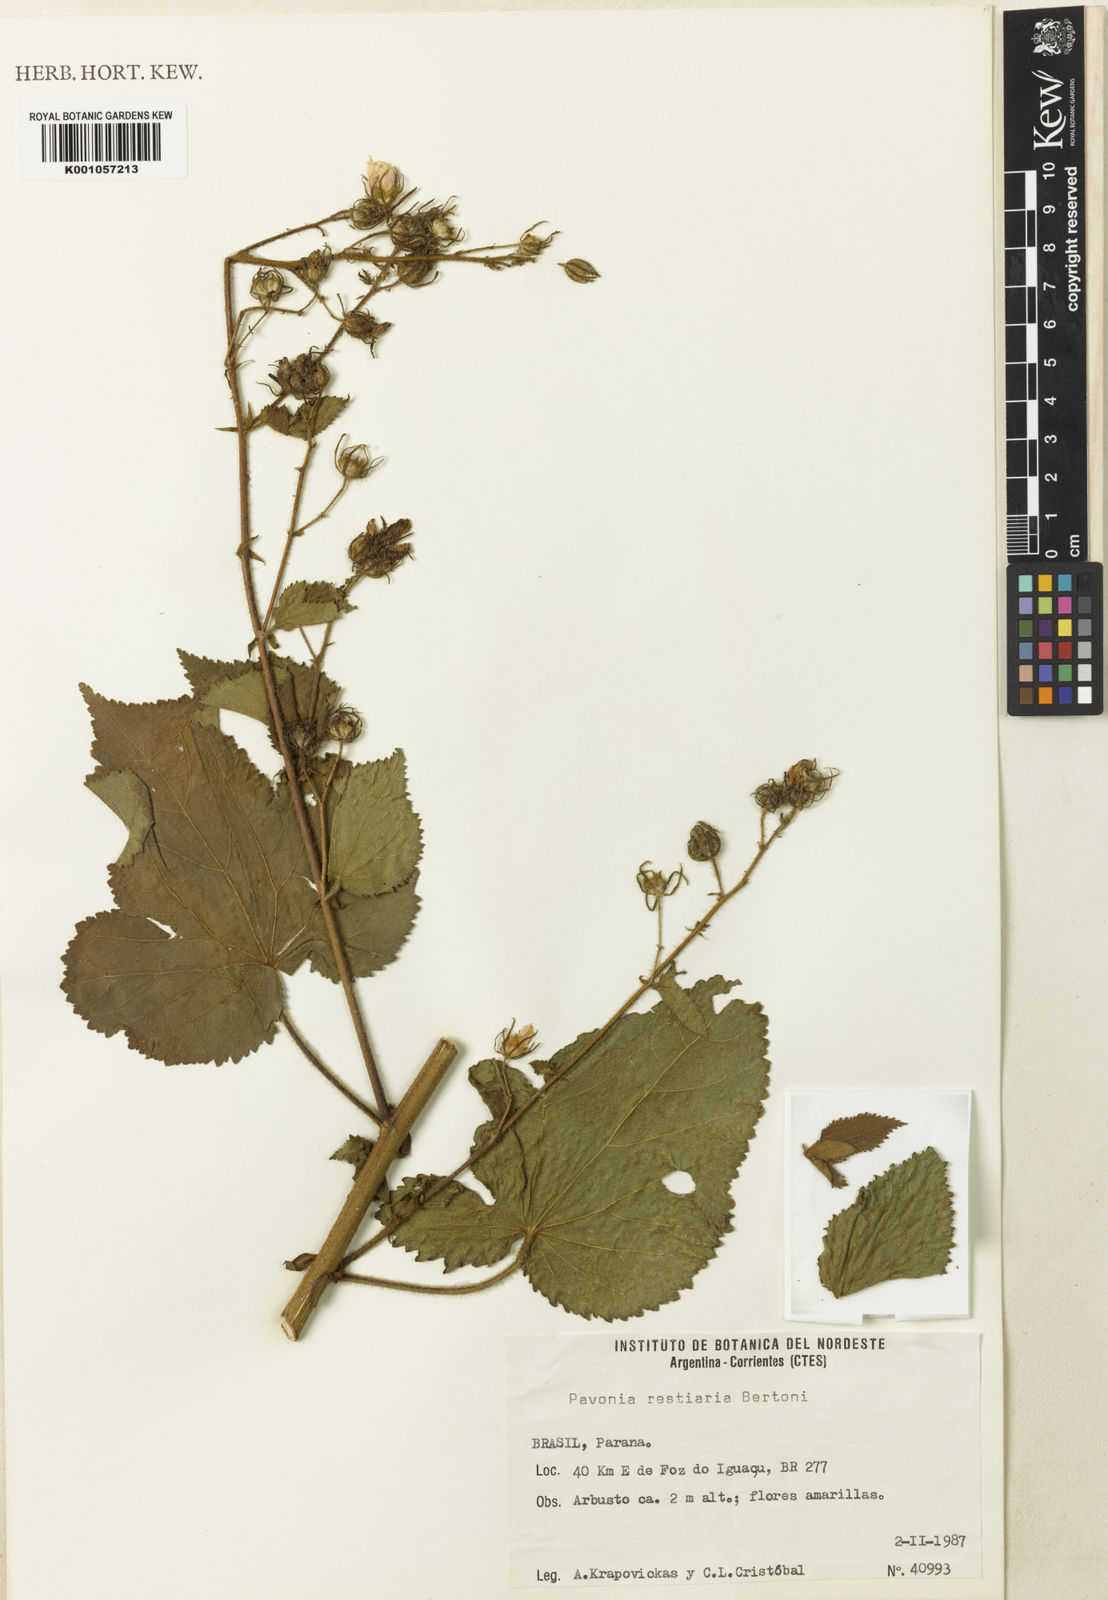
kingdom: Plantae
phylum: Tracheophyta
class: Magnoliopsida
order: Malvales
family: Malvaceae
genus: Pavonia
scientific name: Pavonia restiaria
